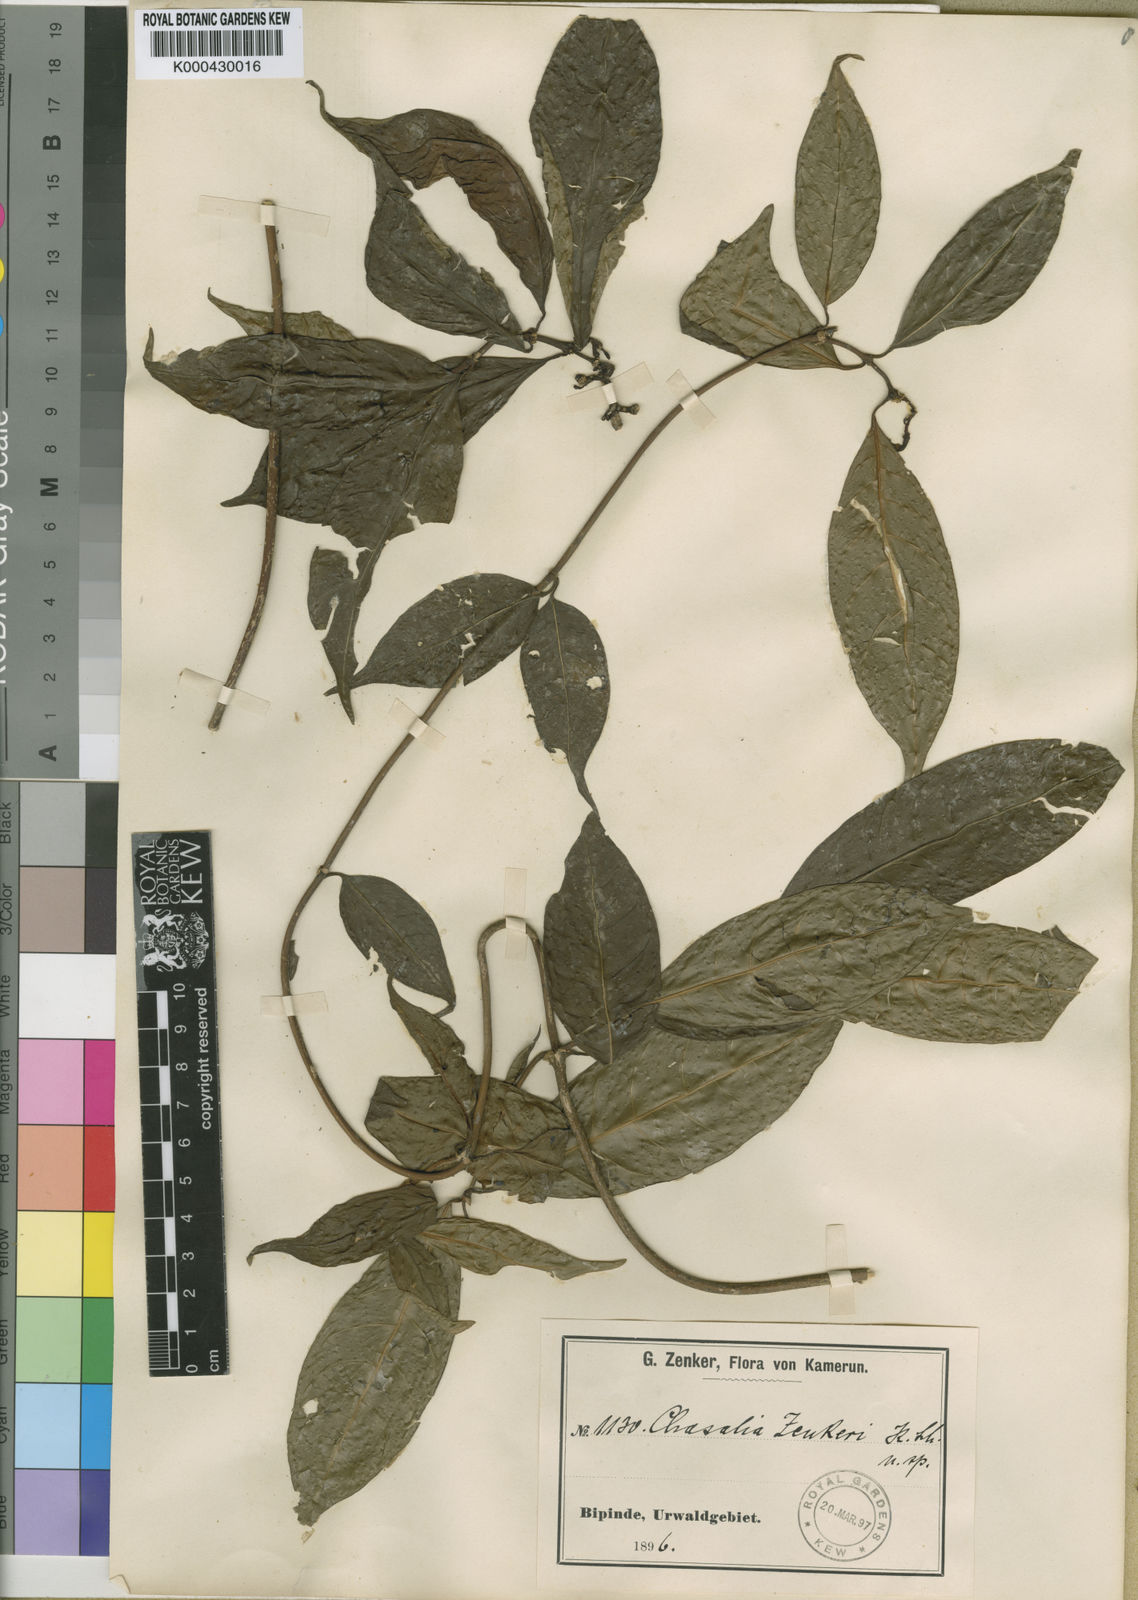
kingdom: Plantae
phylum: Tracheophyta
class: Magnoliopsida
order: Gentianales
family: Rubiaceae
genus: Chassalia
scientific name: Chassalia subnuda
